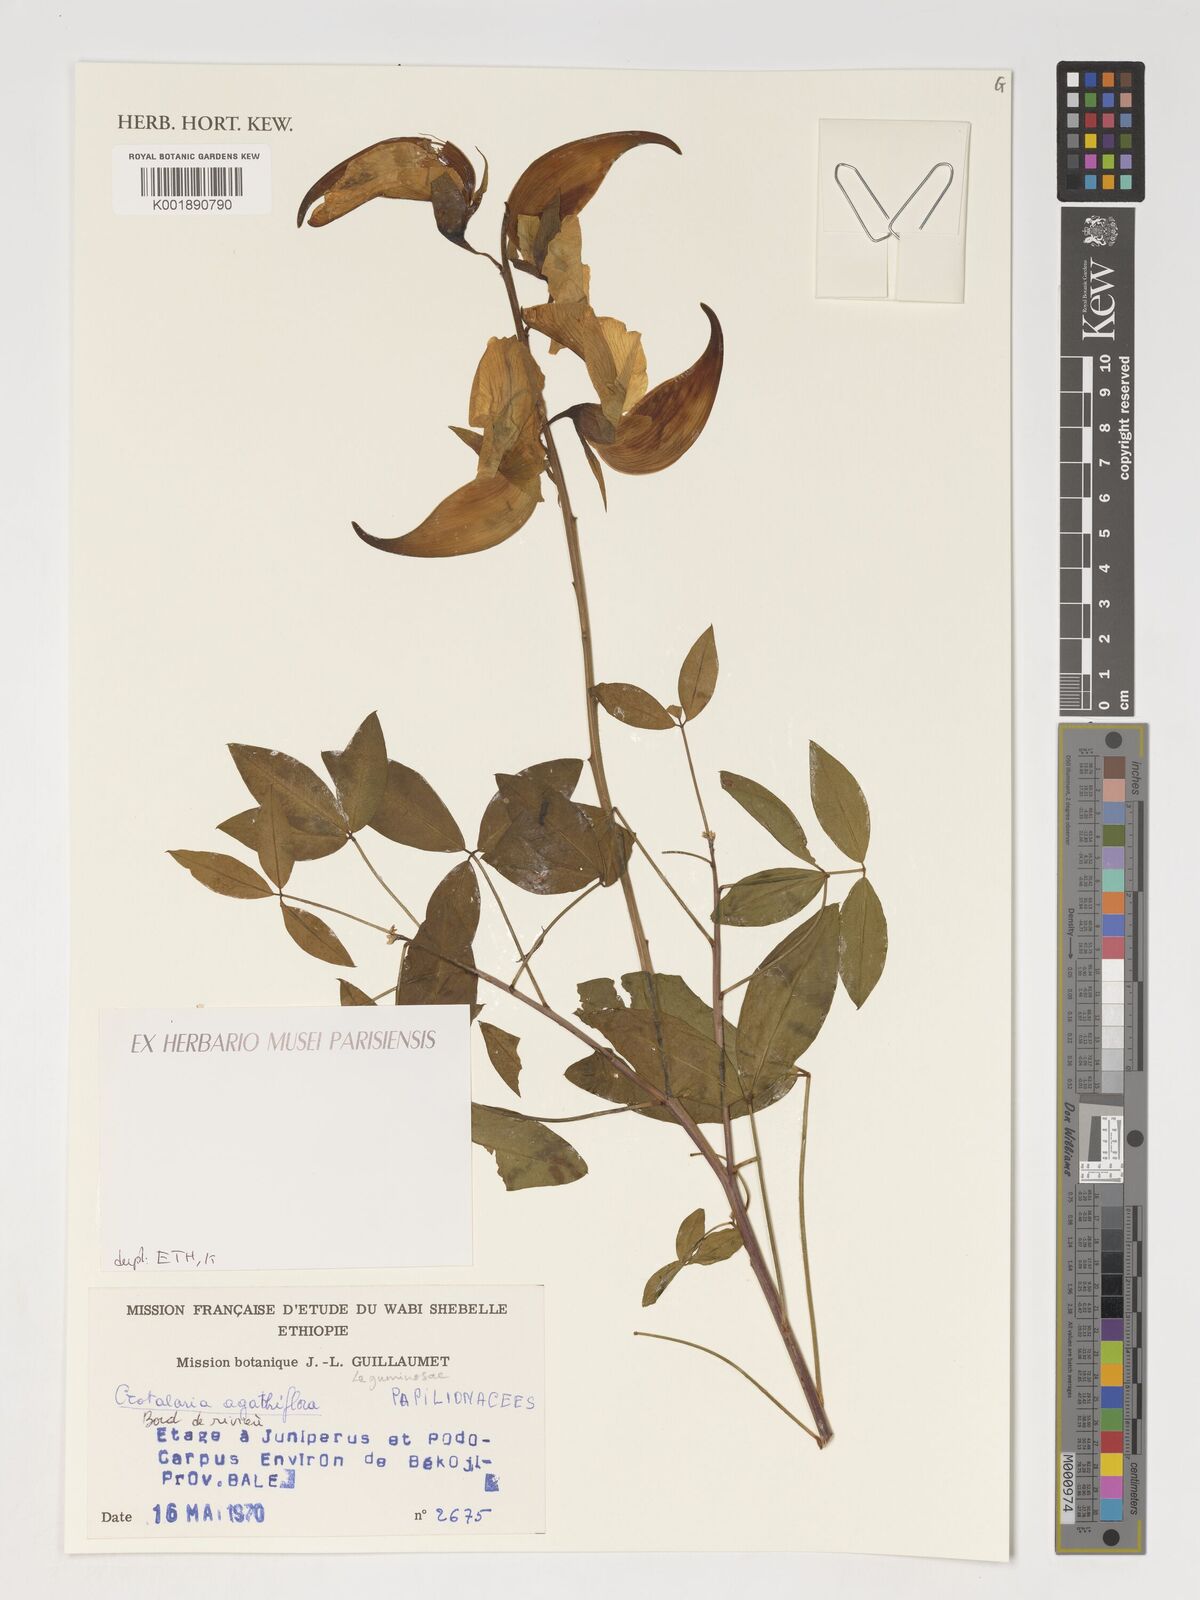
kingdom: Plantae
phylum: Tracheophyta
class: Magnoliopsida
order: Fabales
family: Fabaceae
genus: Crotalaria
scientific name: Crotalaria agatiflora
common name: Birdflower
